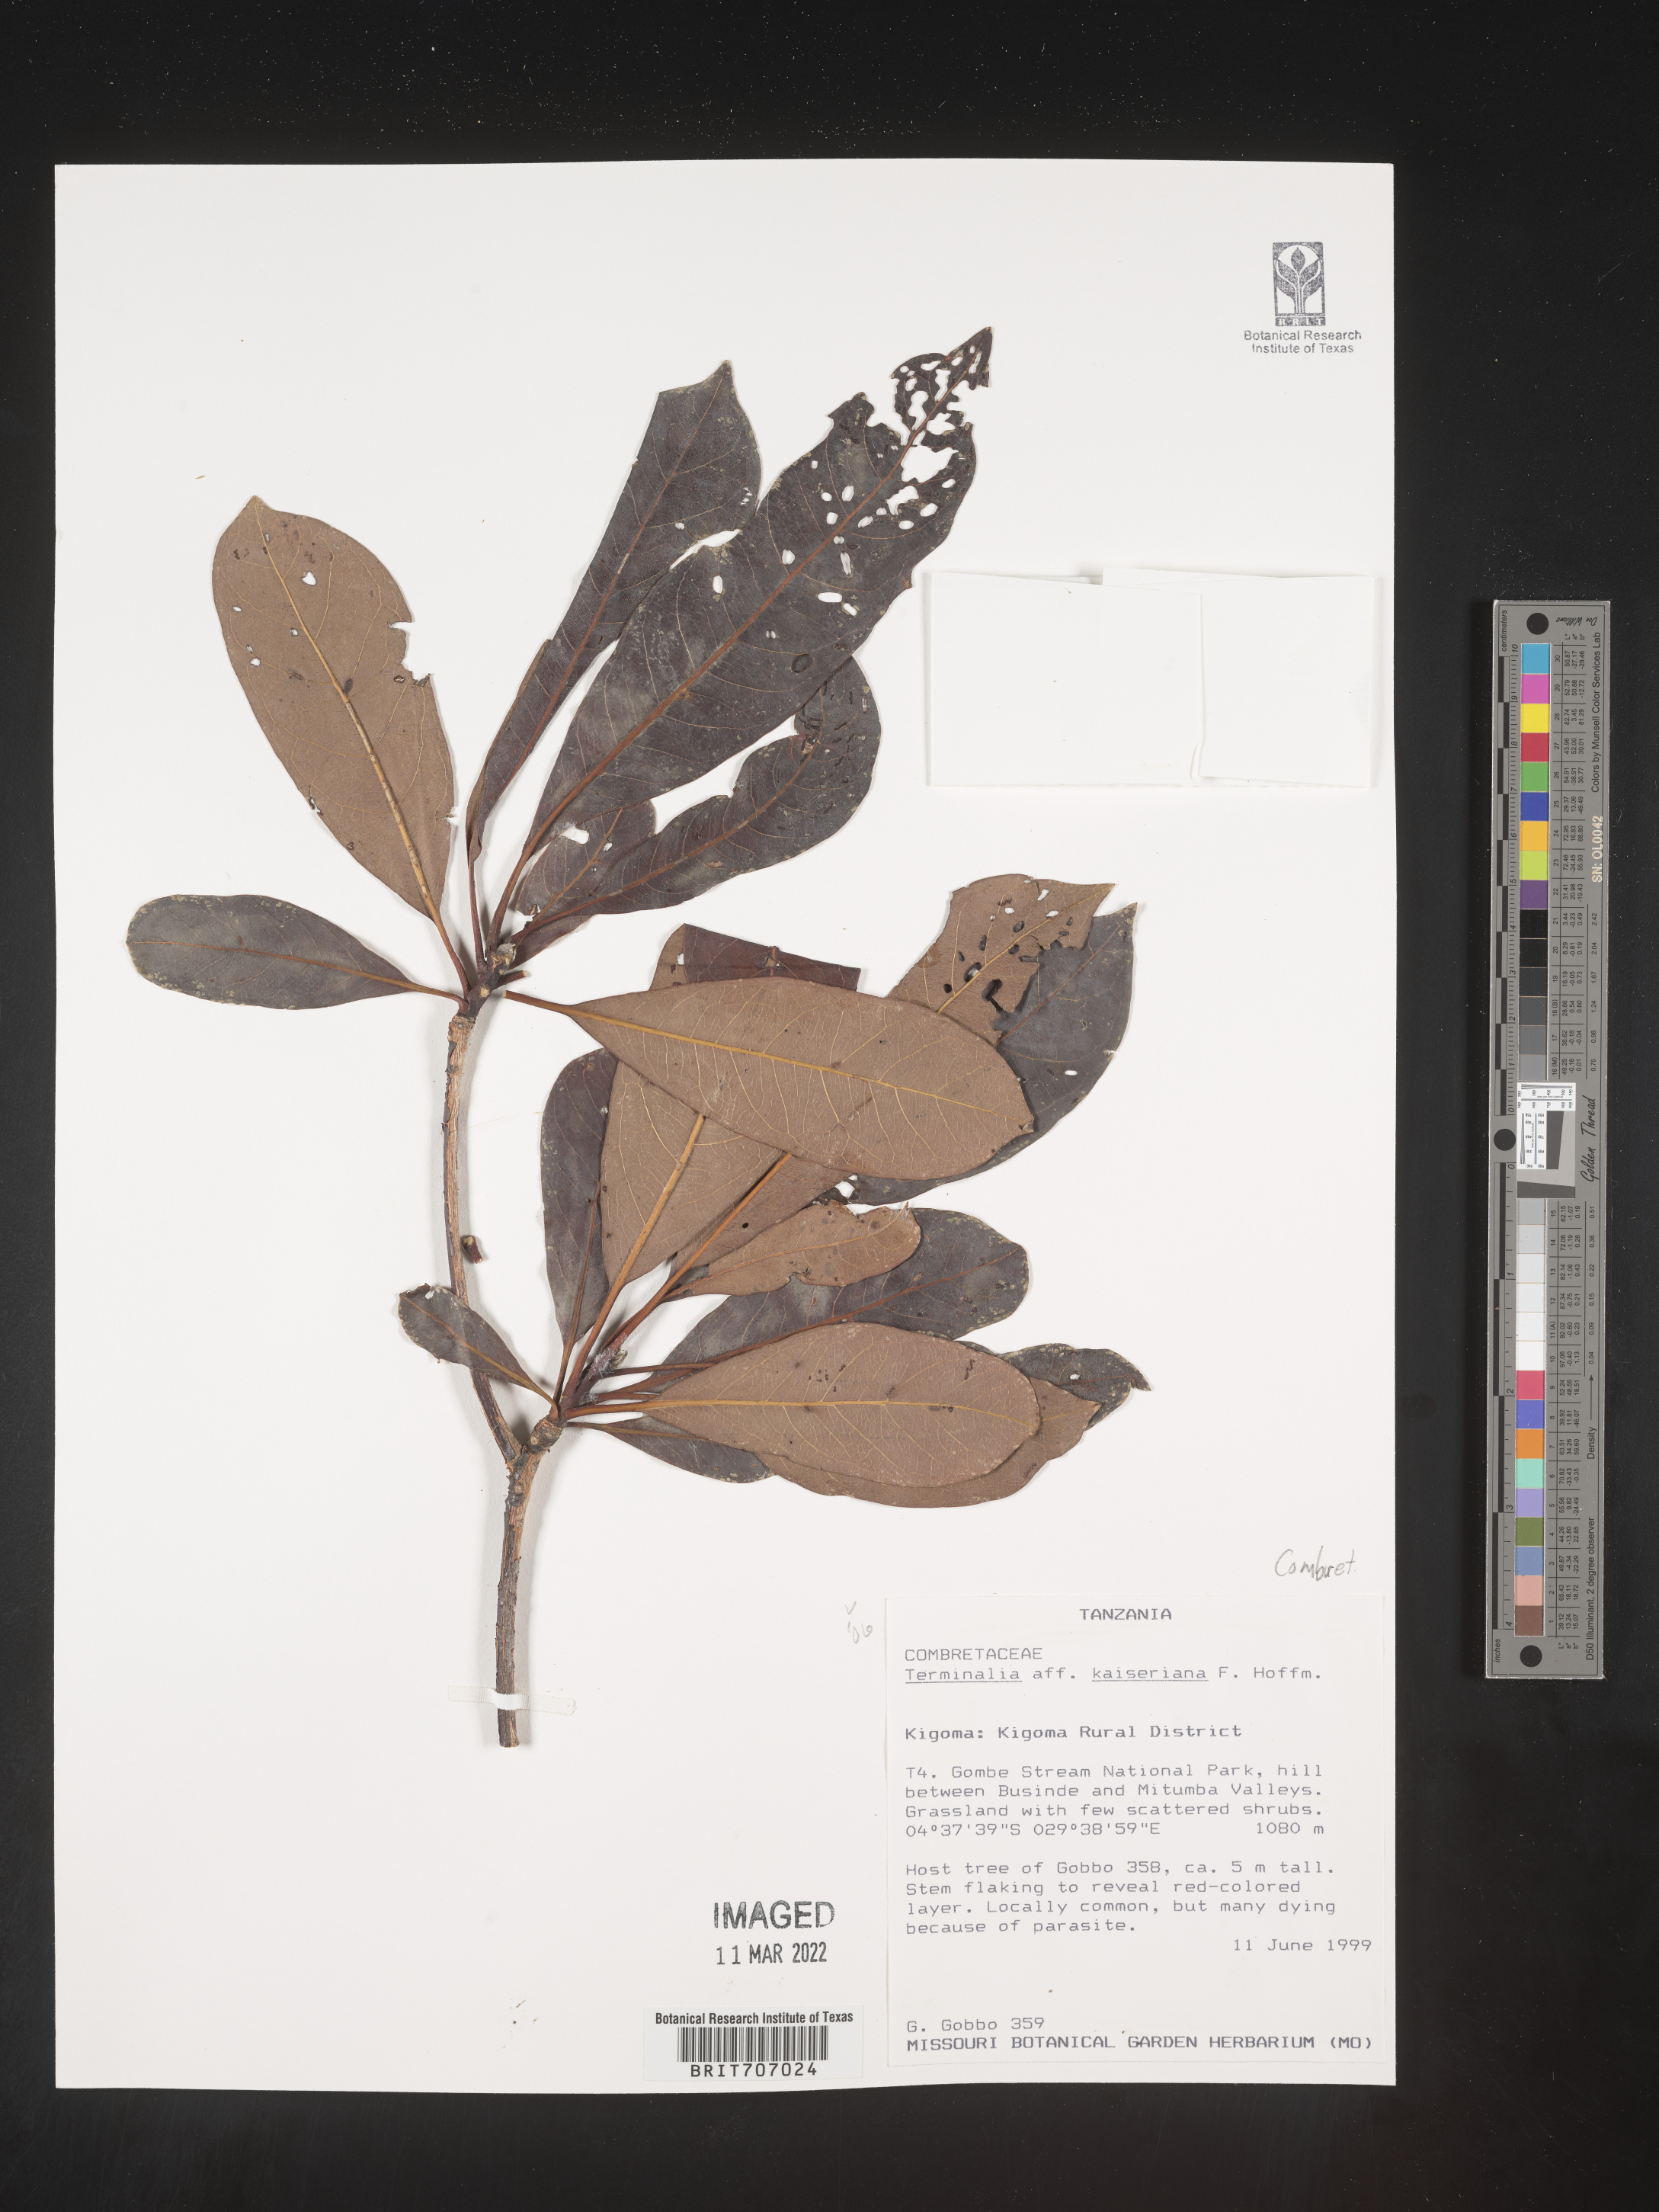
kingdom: Plantae
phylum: Tracheophyta
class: Magnoliopsida
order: Myrtales
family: Combretaceae
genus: Terminalia
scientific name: Terminalia
